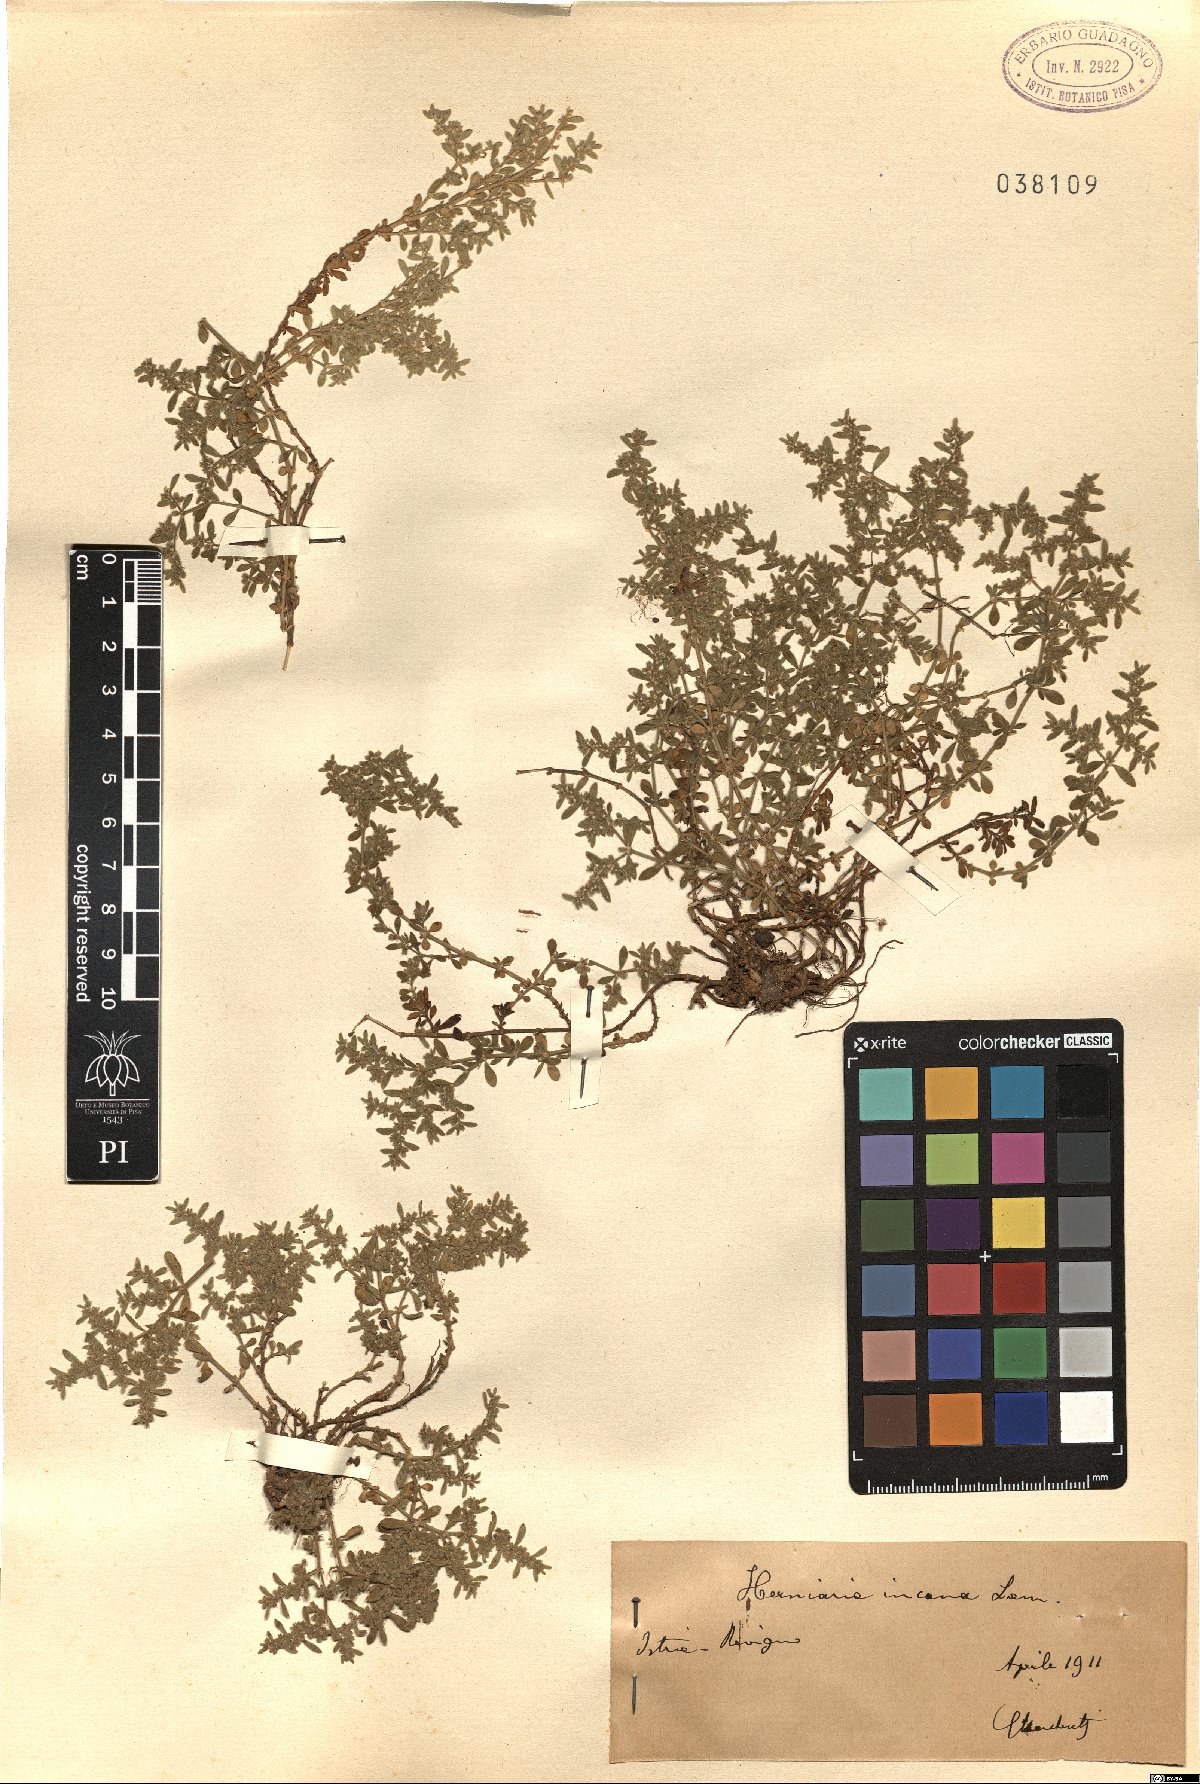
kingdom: Plantae
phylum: Tracheophyta
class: Magnoliopsida
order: Caryophyllales
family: Caryophyllaceae
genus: Herniaria
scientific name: Herniaria incana
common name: Gray rupturewort
